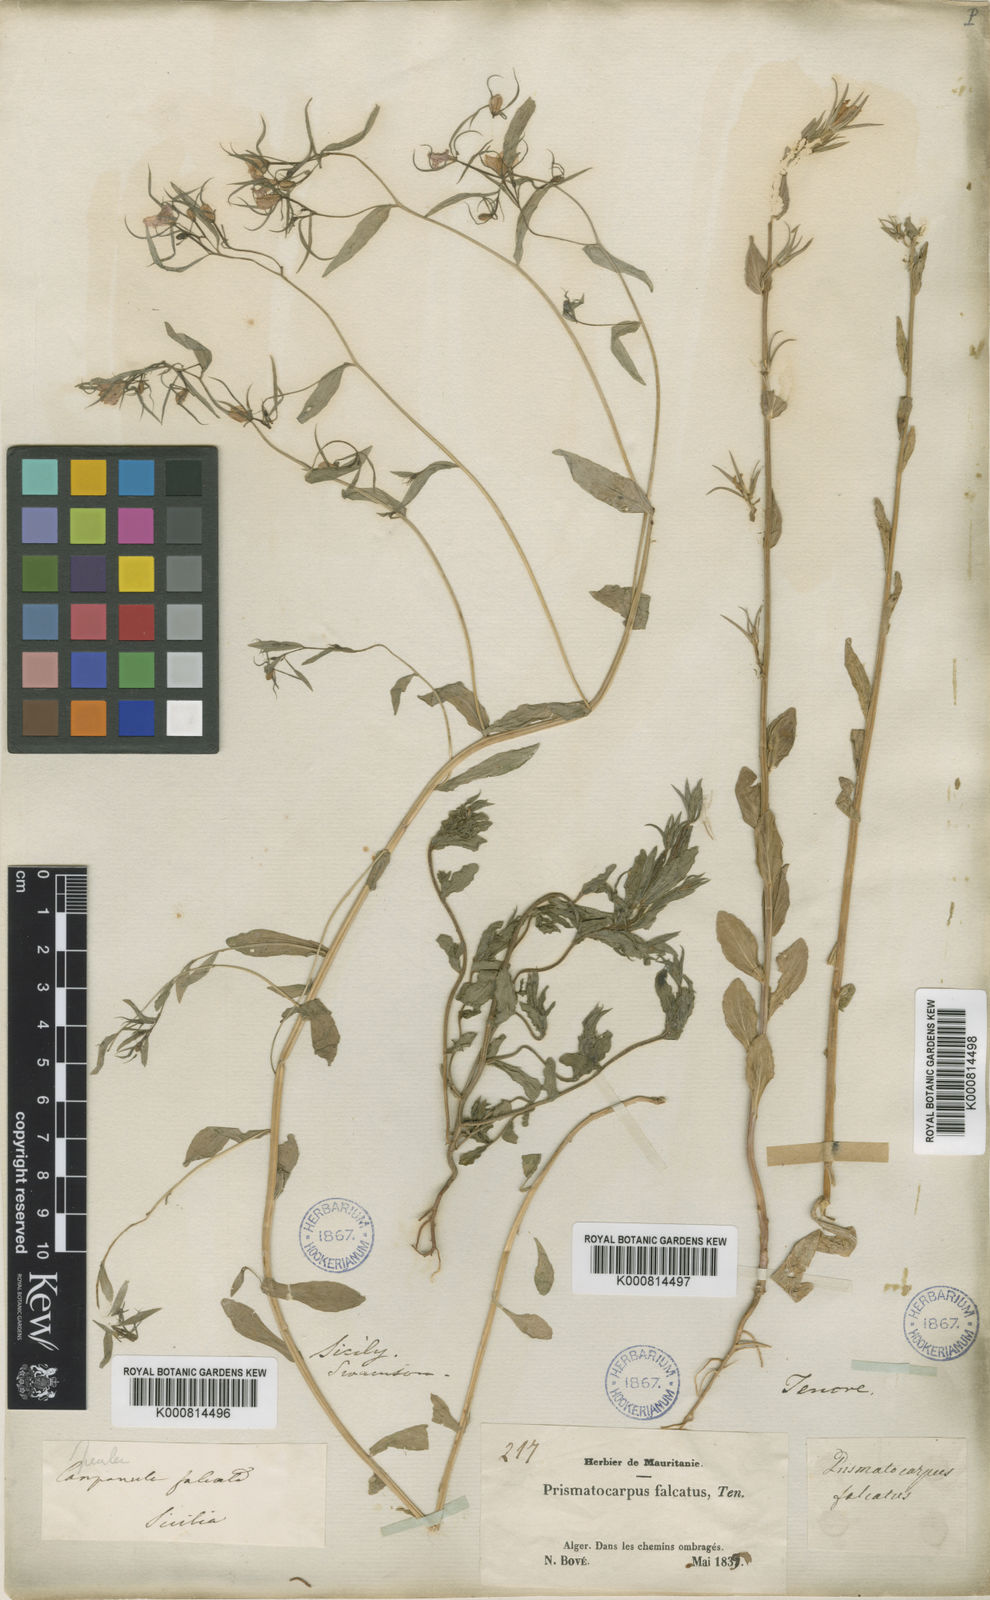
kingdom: Plantae
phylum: Tracheophyta
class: Magnoliopsida
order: Asterales
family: Campanulaceae
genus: Legousia
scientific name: Legousia falcata
